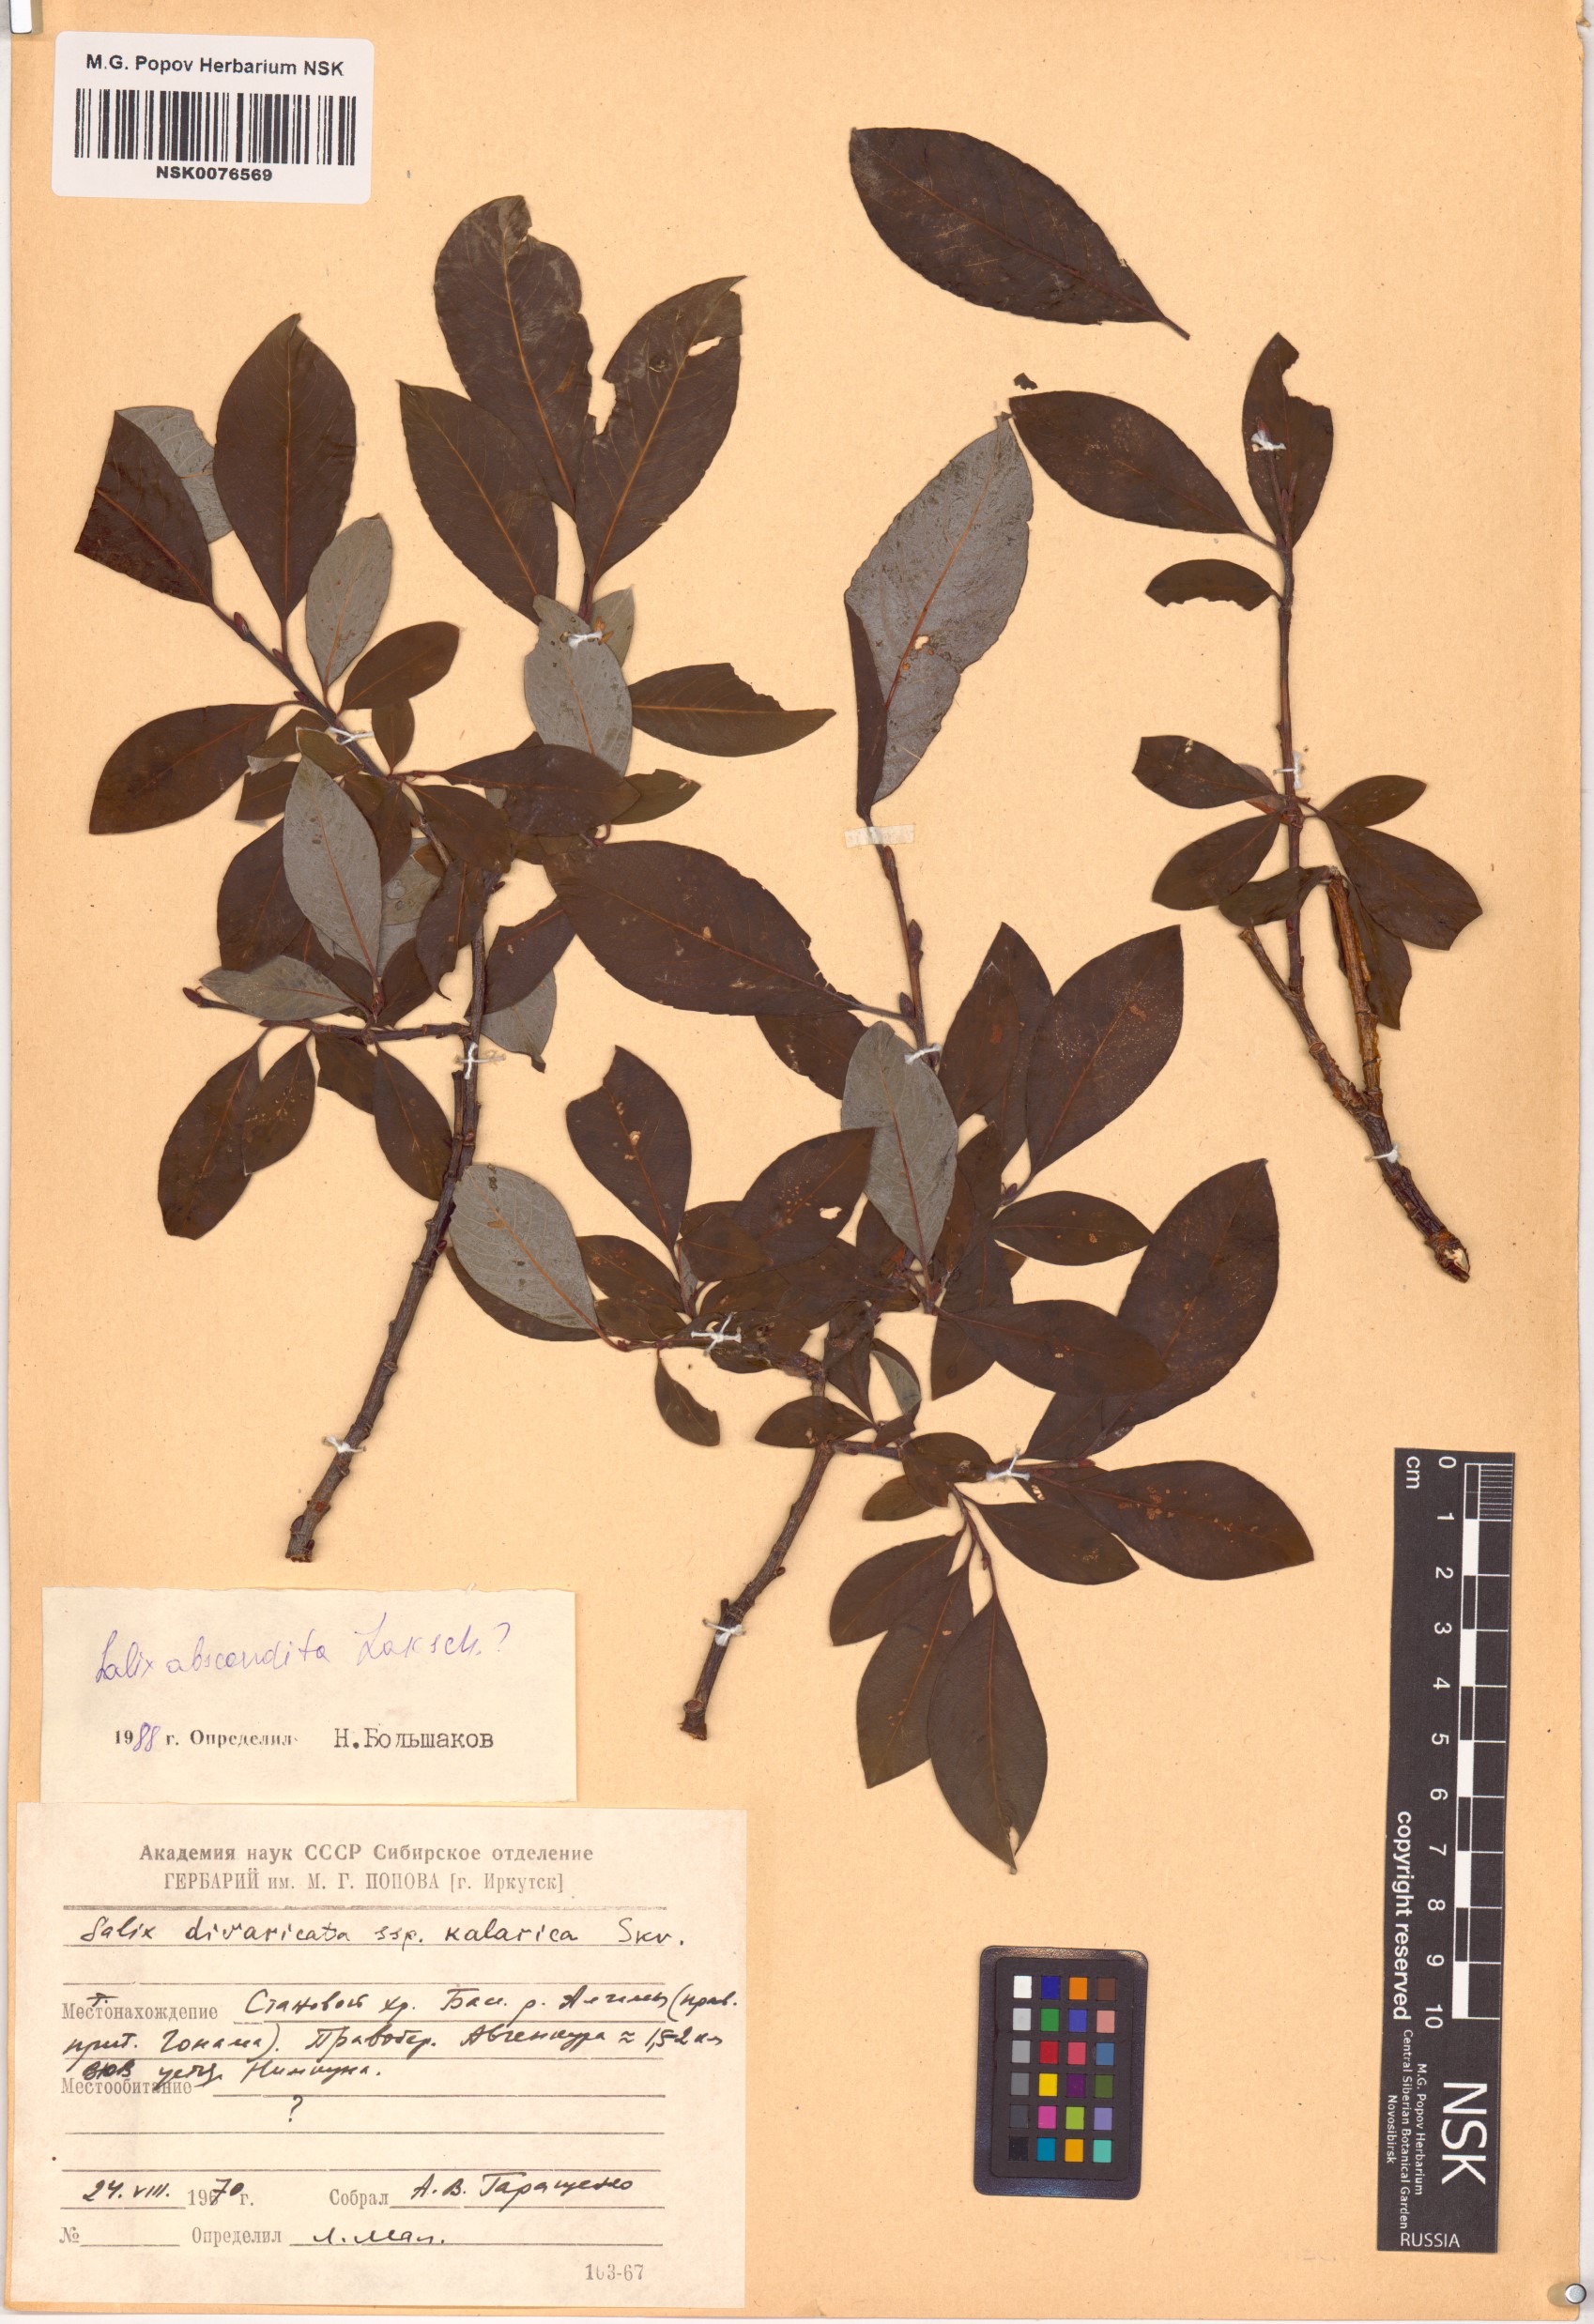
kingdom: Plantae
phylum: Tracheophyta
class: Magnoliopsida
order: Malpighiales
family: Salicaceae
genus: Salix
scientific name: Salix abscondita
